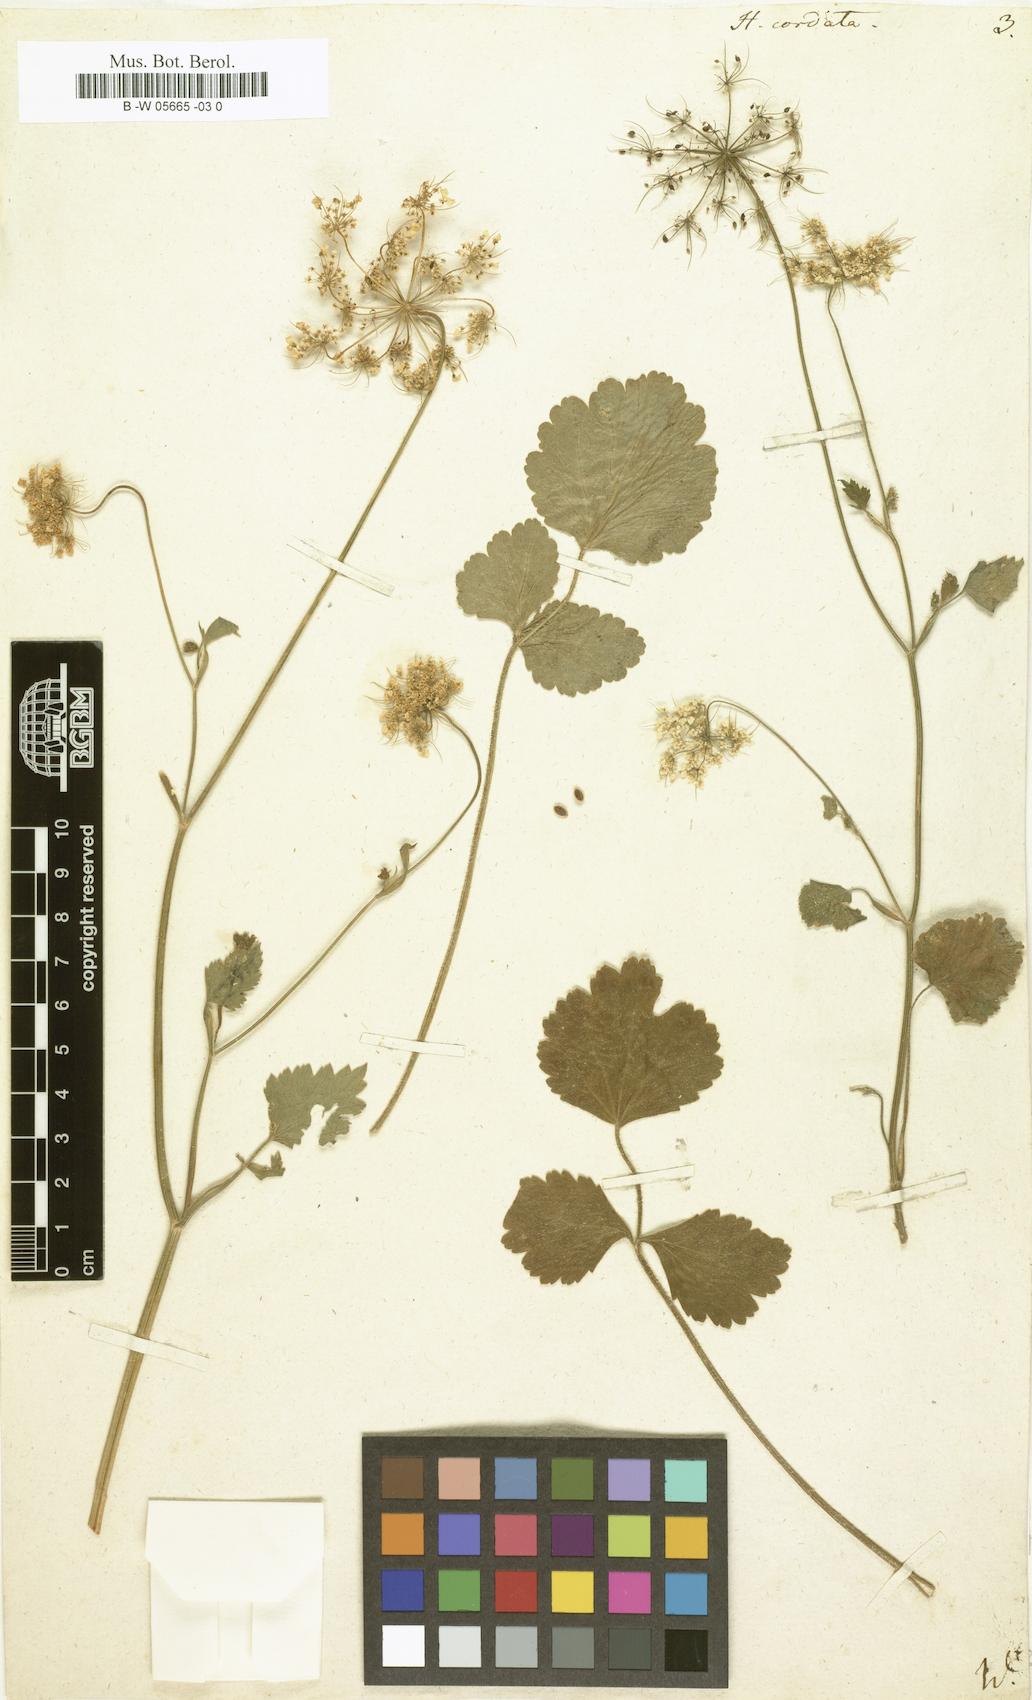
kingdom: Plantae
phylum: Tracheophyta
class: Magnoliopsida
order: Apiales
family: Apiaceae
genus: Ainsworthia
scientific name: Ainsworthia cordata
